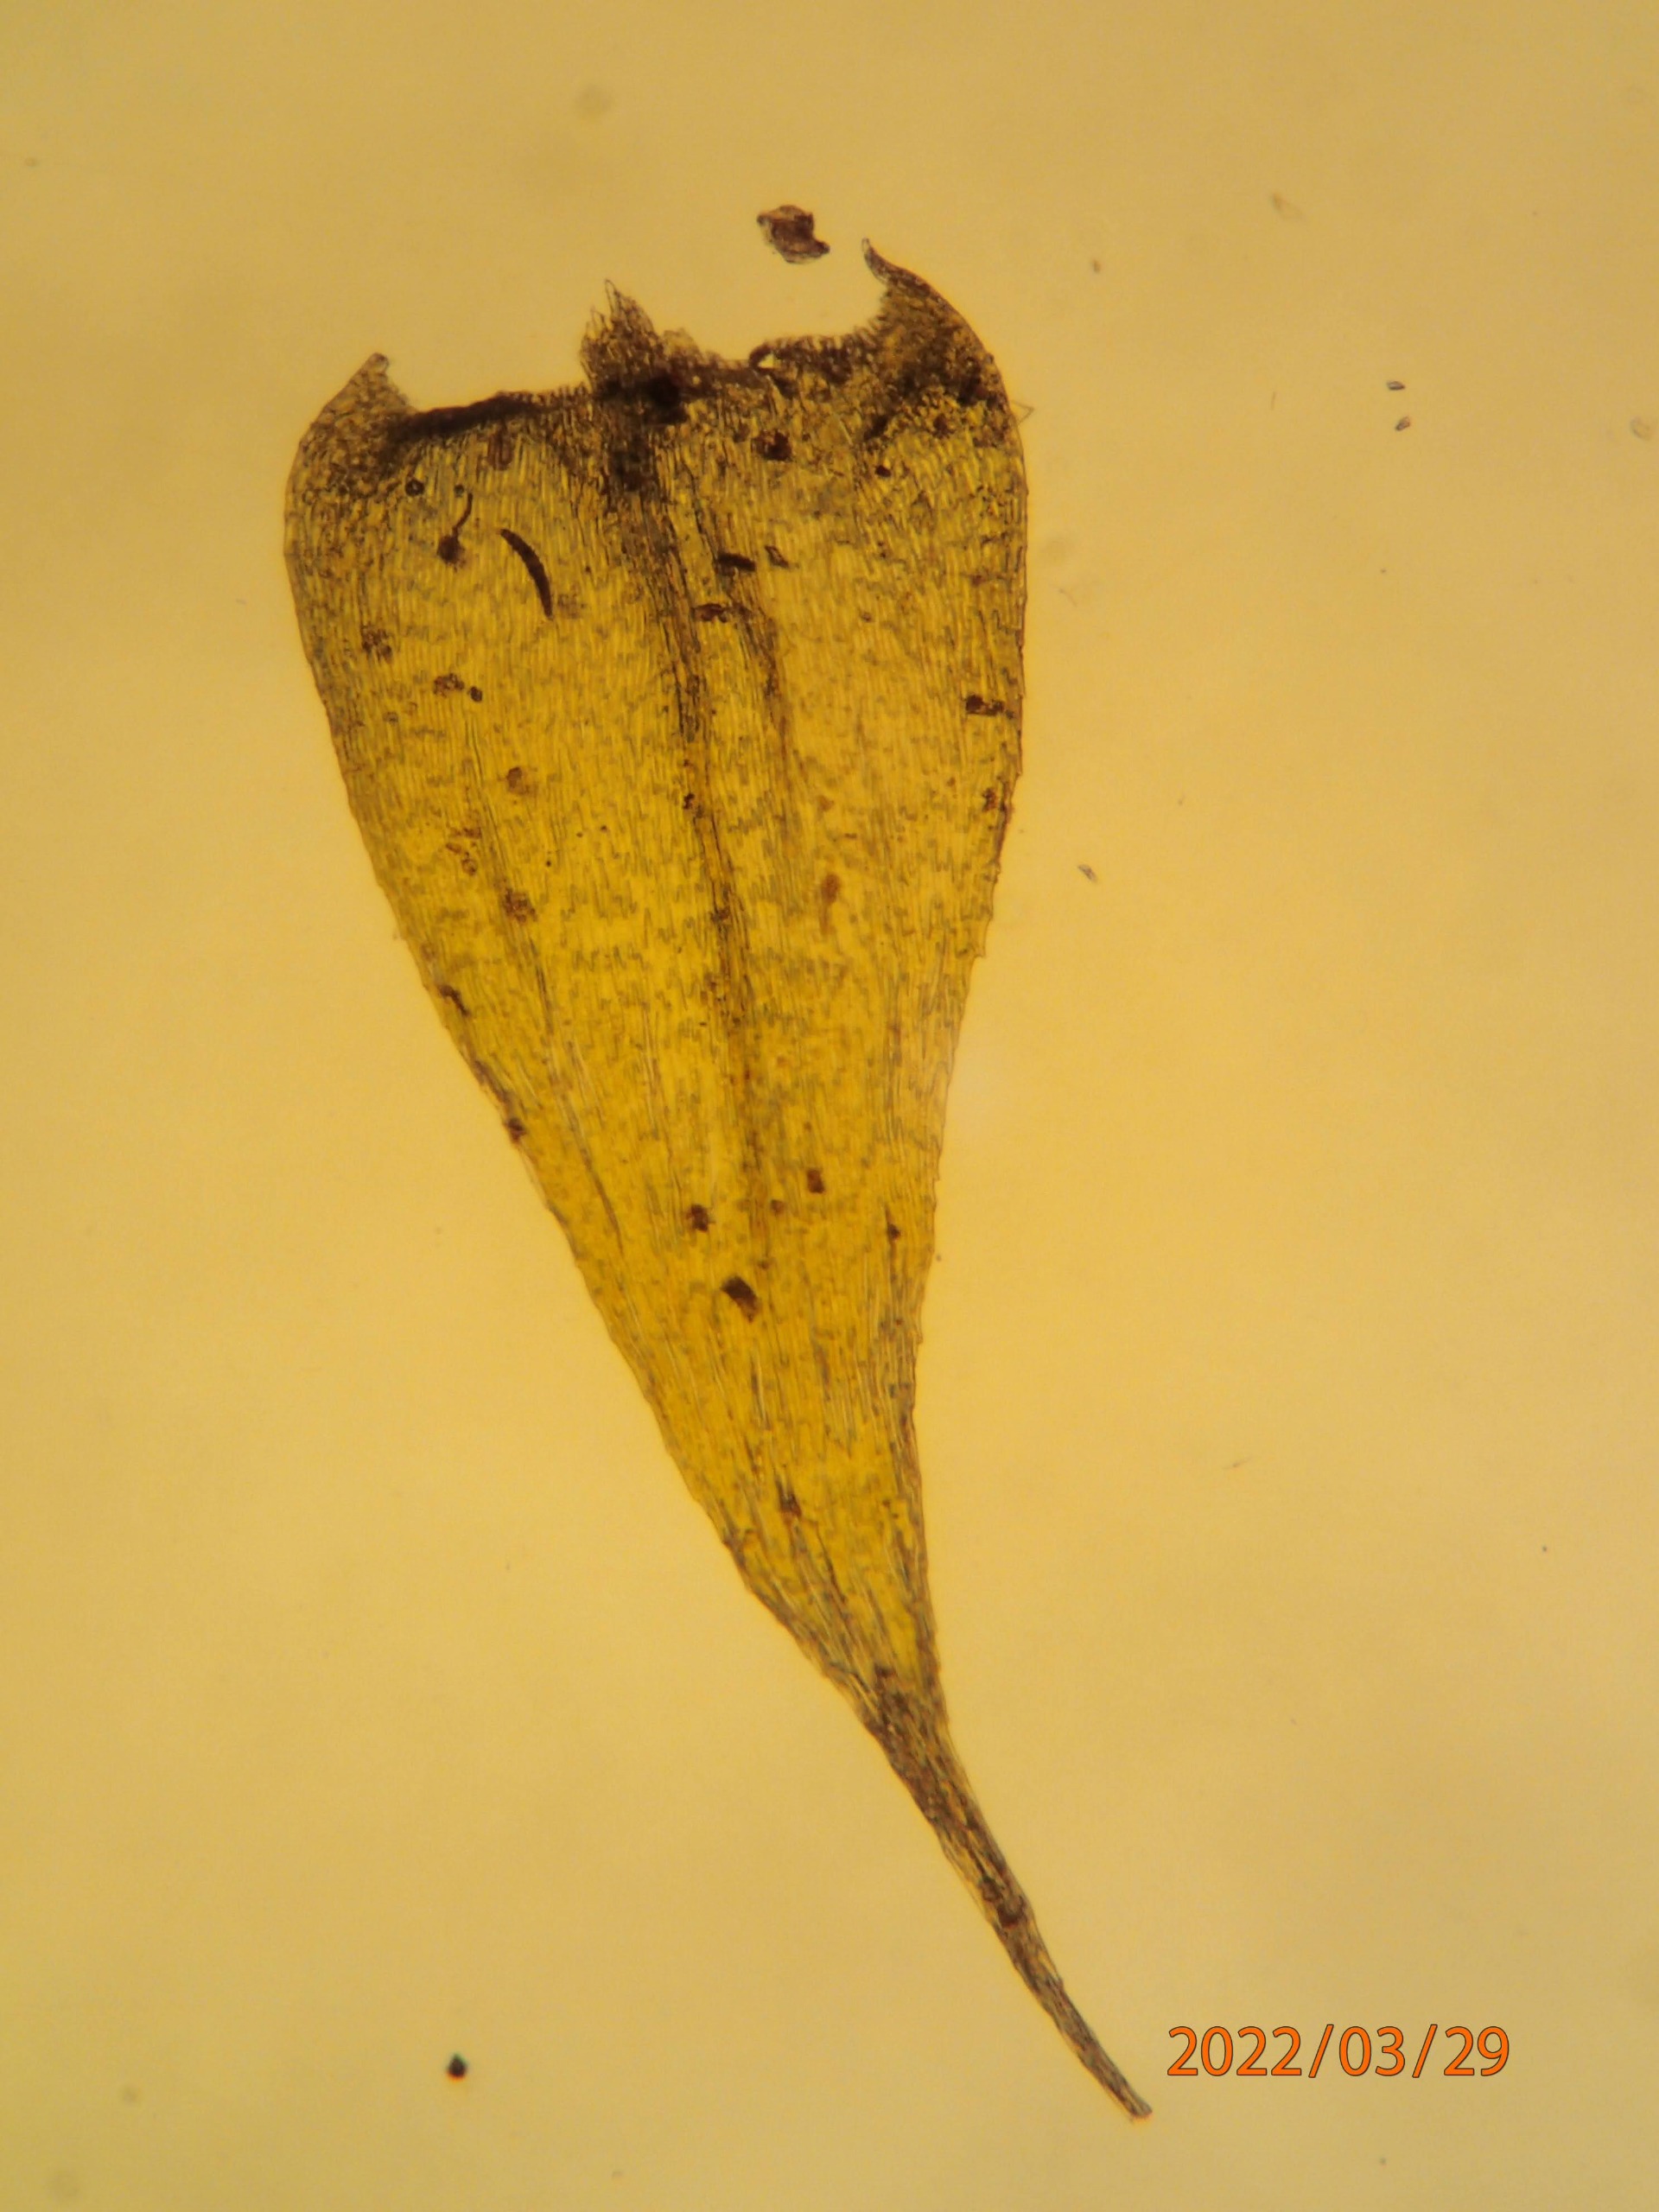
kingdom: Plantae
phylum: Bryophyta
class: Bryopsida
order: Hypnales
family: Brachytheciaceae
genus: Brachytheciastrum
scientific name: Brachytheciastrum velutinum
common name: Fløjls-kortkapsel
